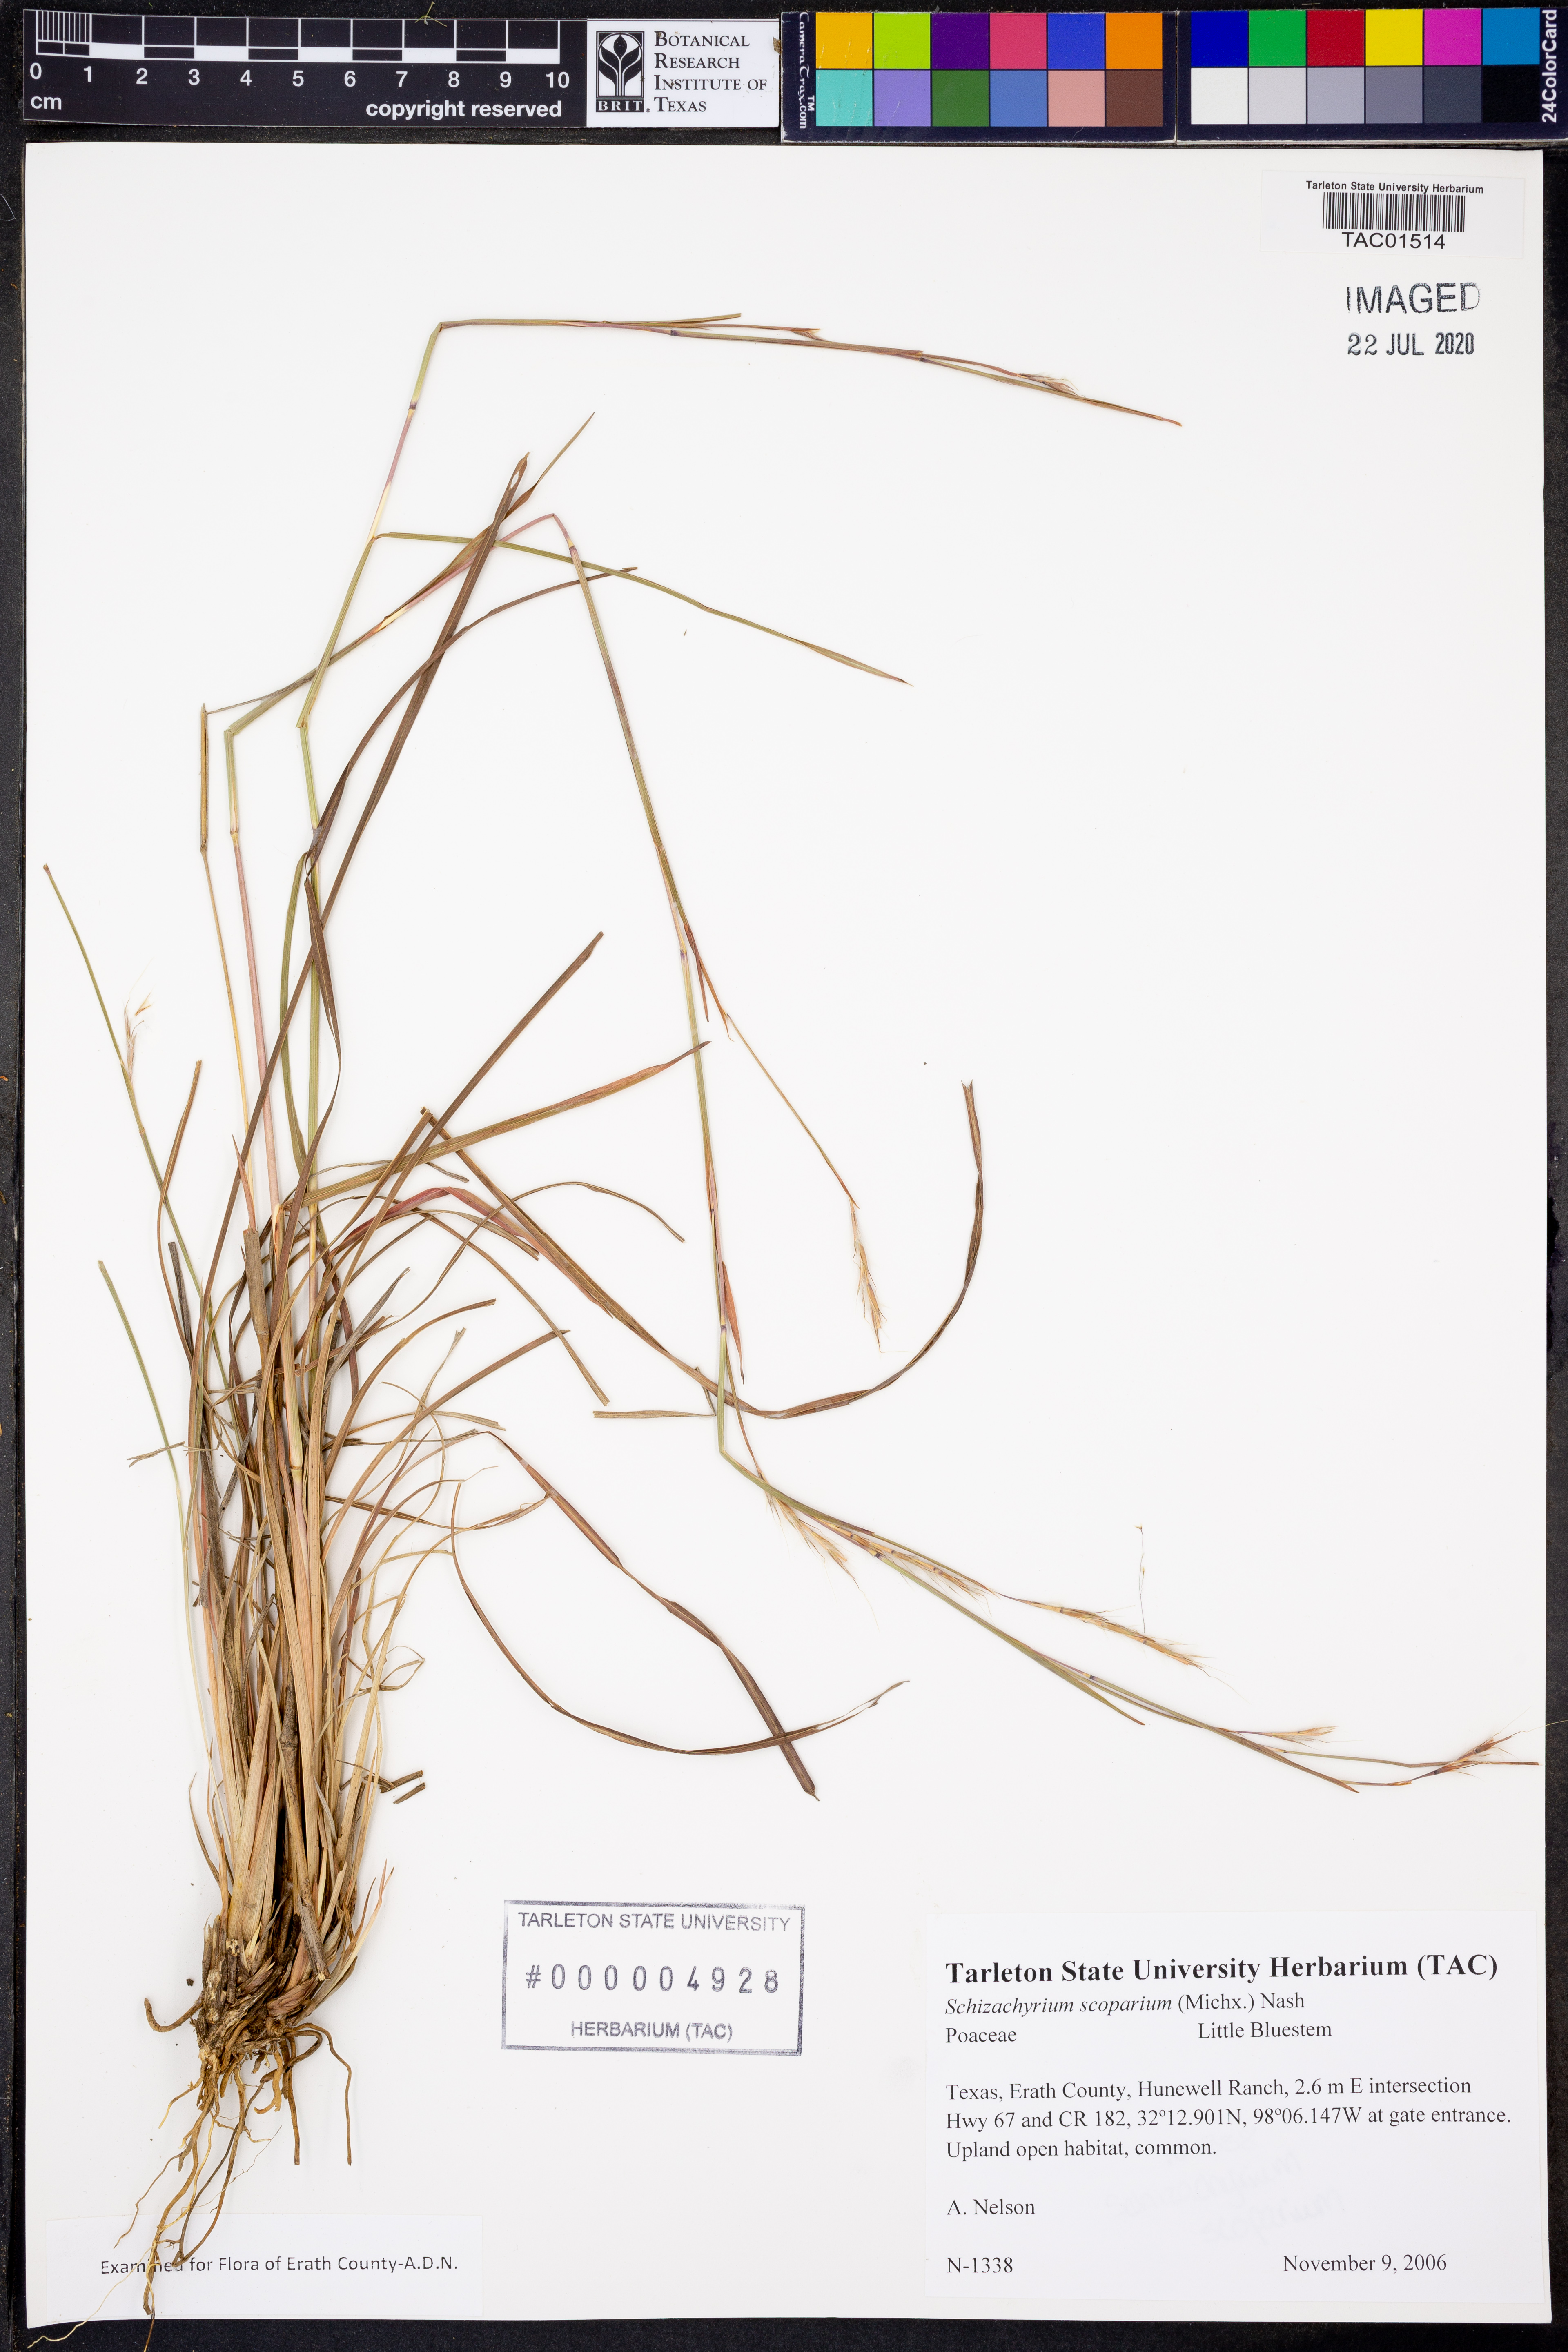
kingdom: Plantae
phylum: Tracheophyta
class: Liliopsida
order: Poales
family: Poaceae
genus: Schizachyrium
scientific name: Schizachyrium scoparium
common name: Little bluestem
